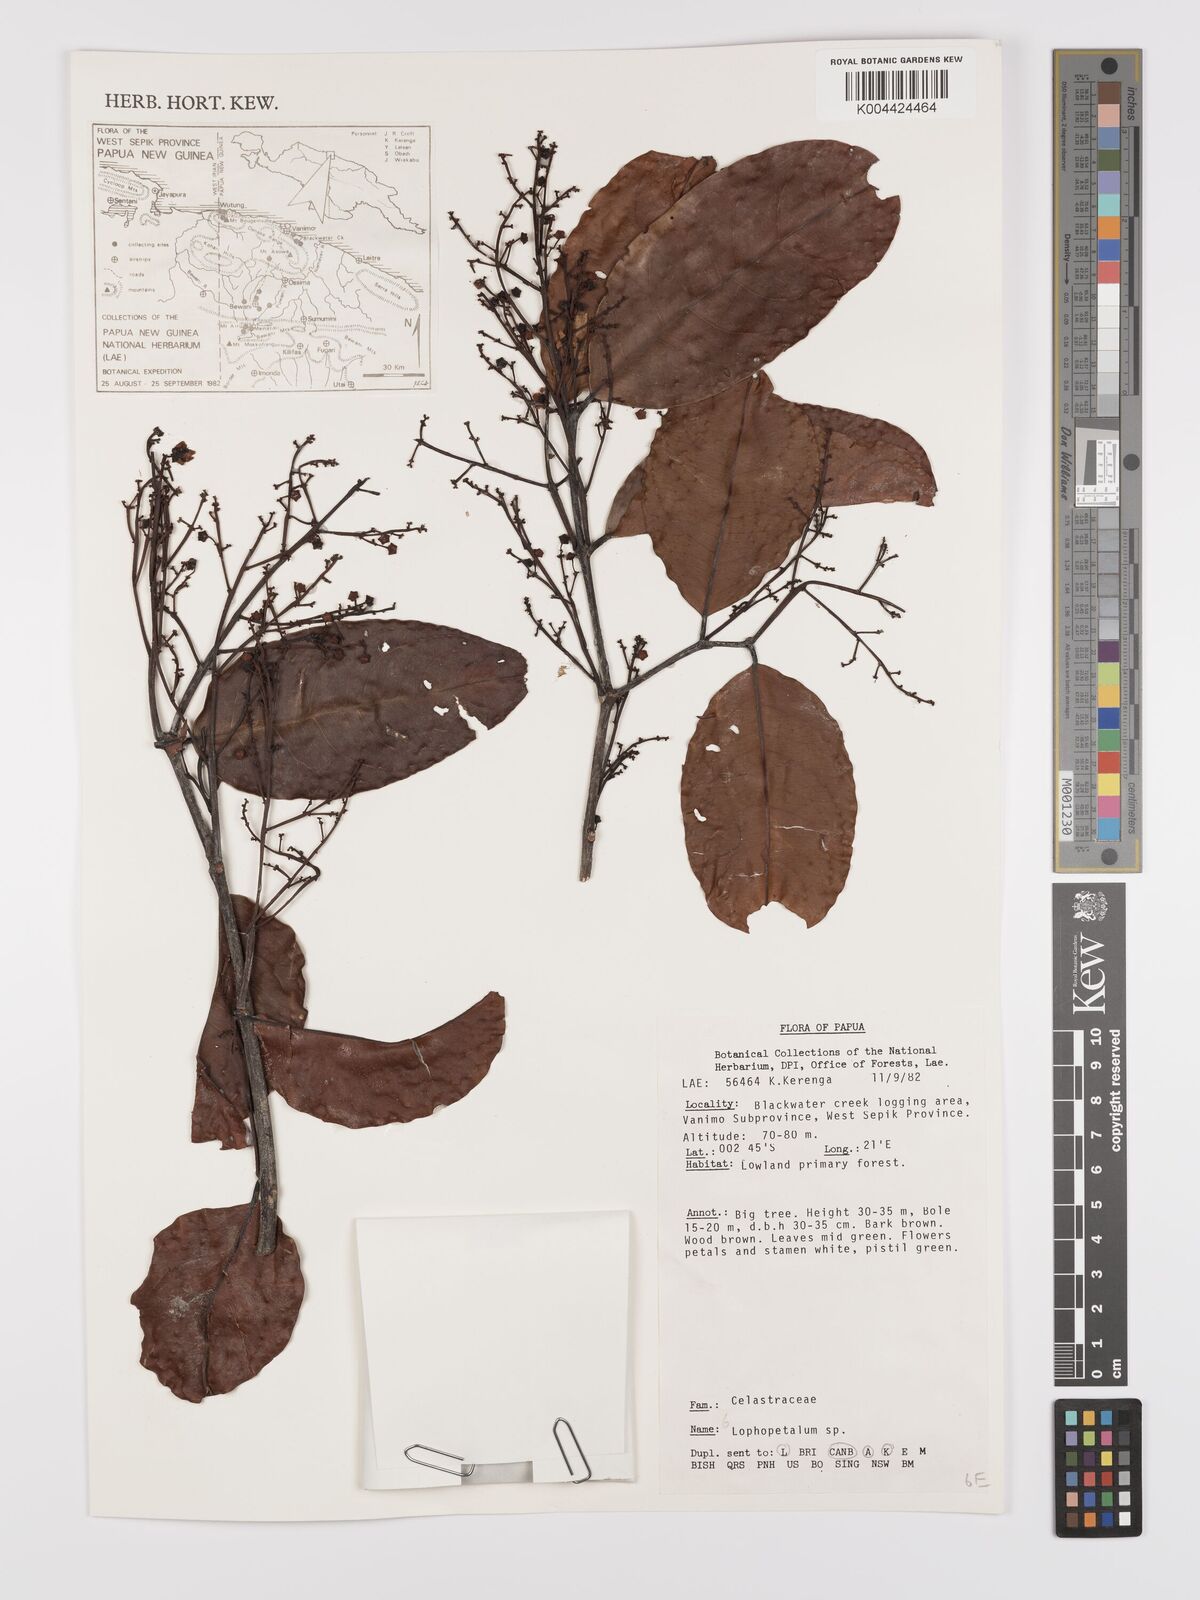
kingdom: Plantae
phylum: Tracheophyta
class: Magnoliopsida
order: Celastrales
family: Celastraceae
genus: Lophopetalum
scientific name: Lophopetalum
